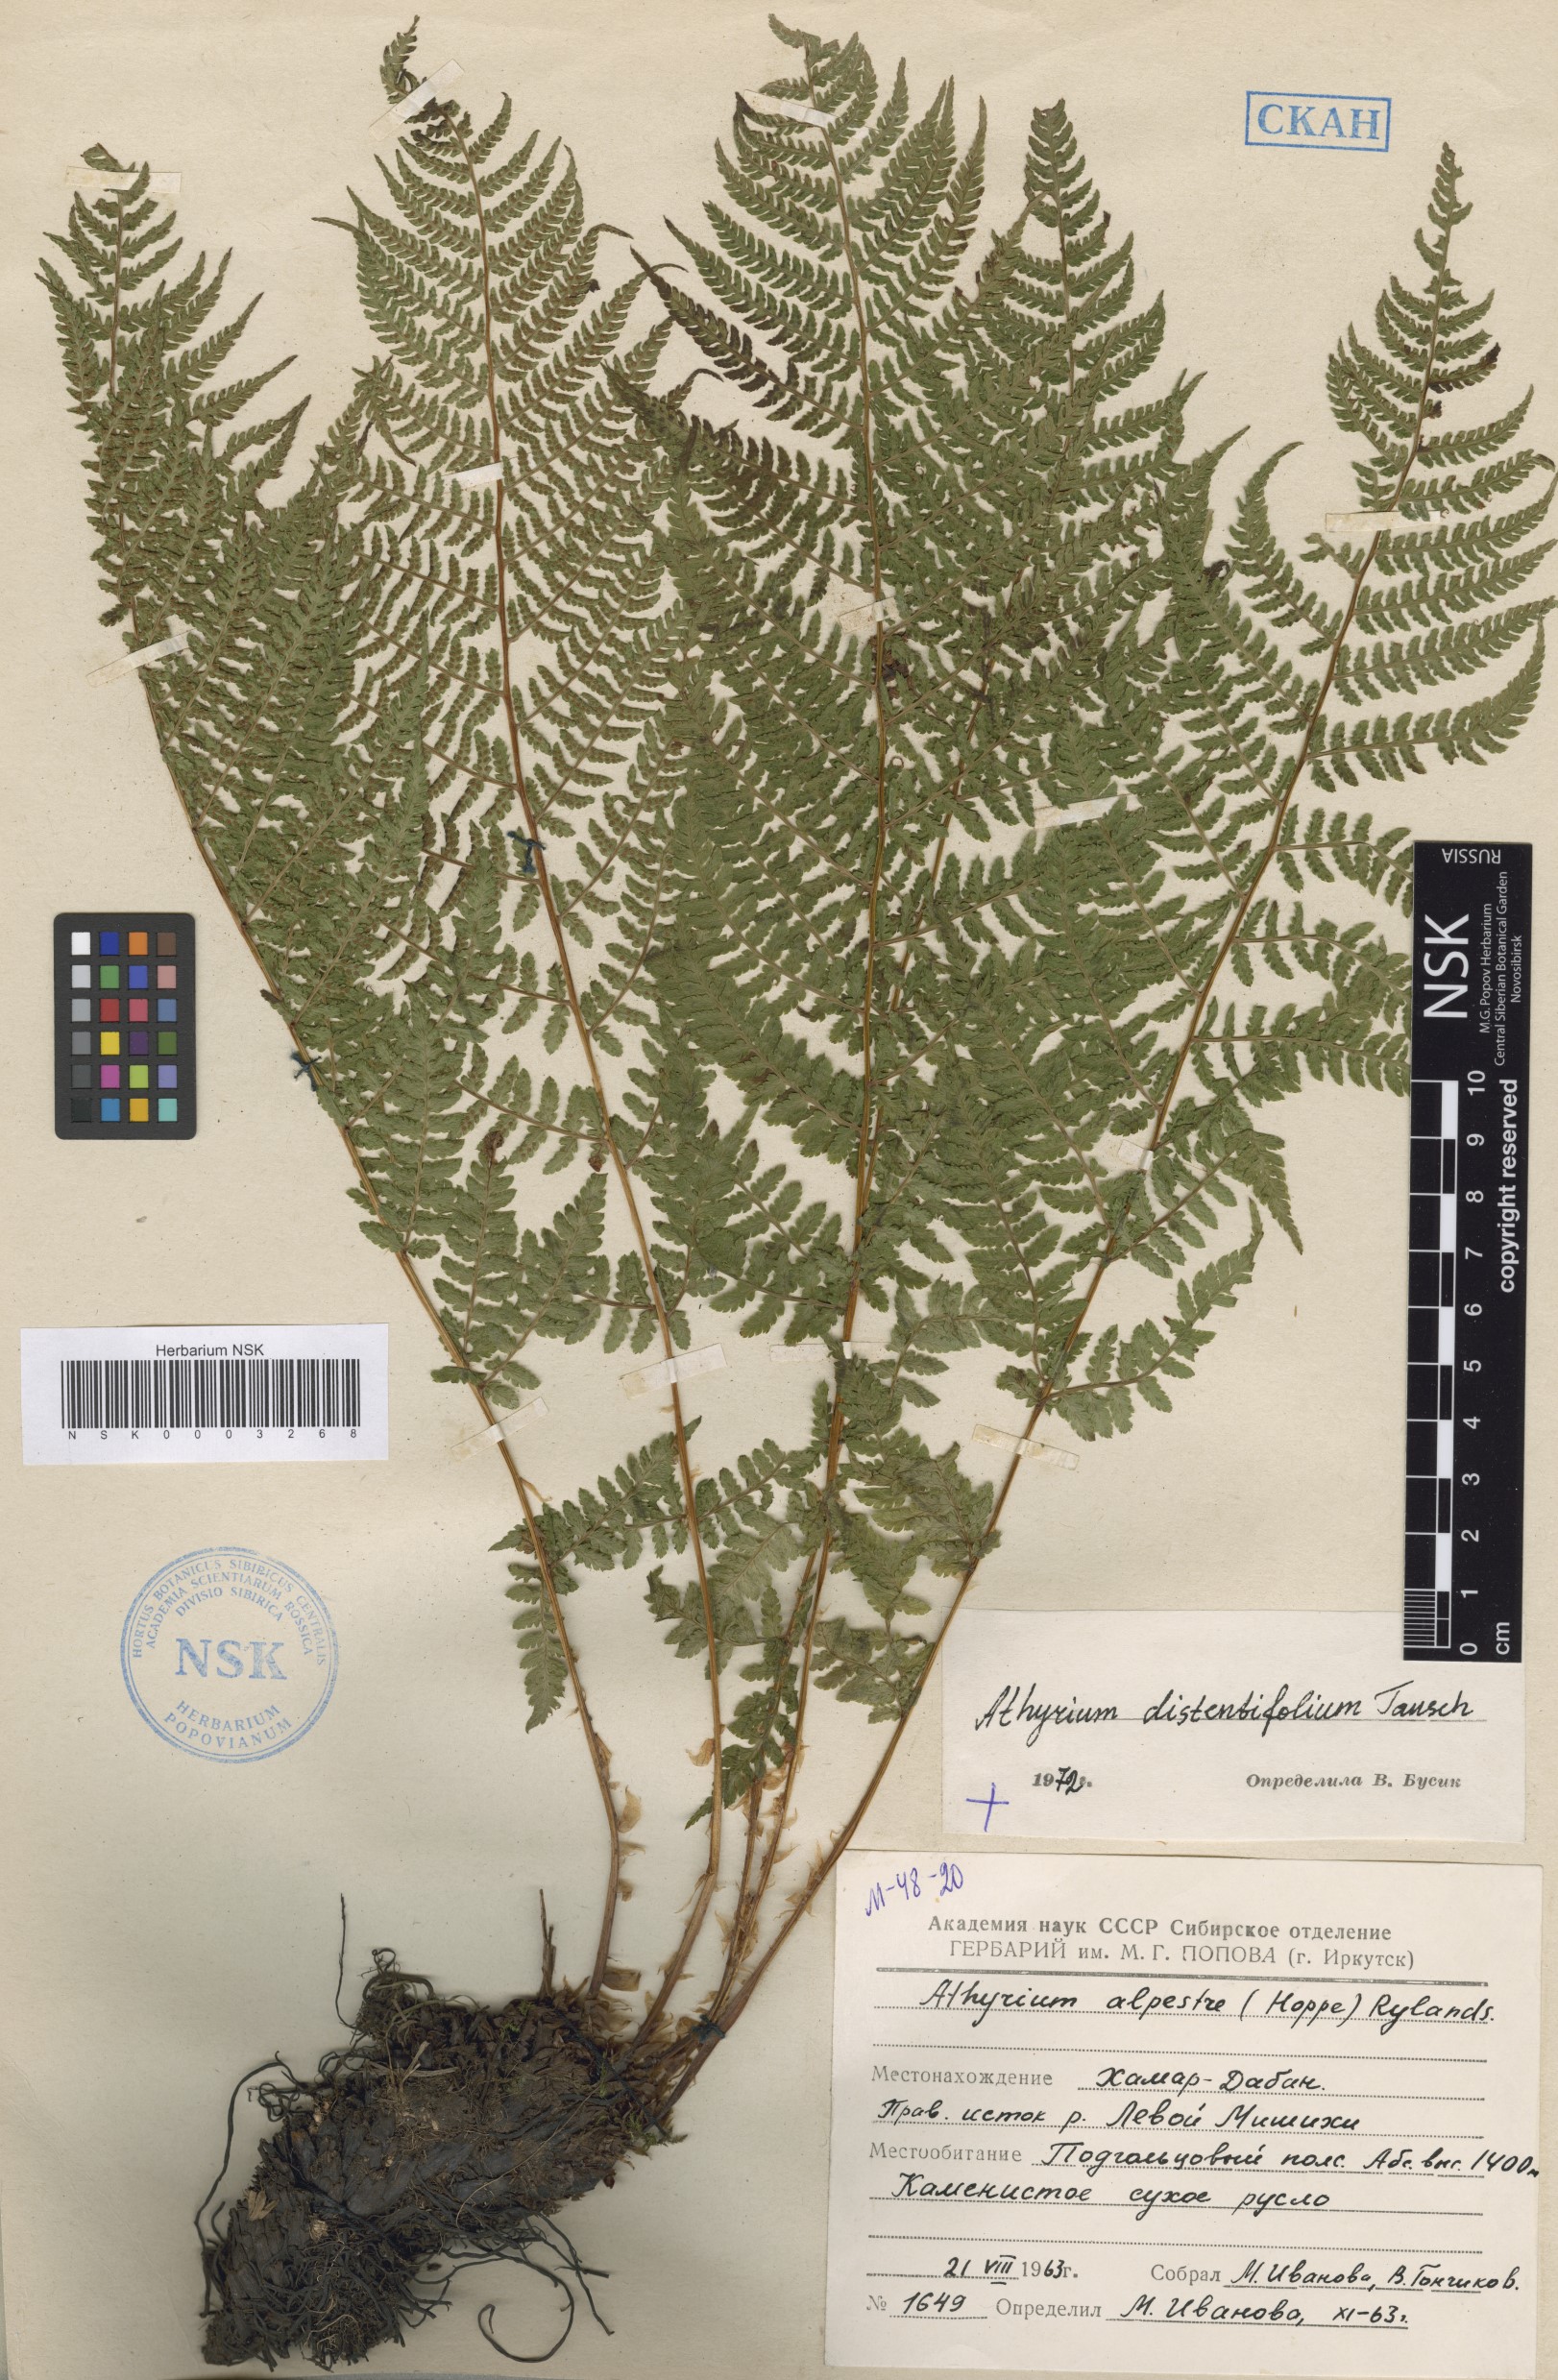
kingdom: Plantae
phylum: Tracheophyta
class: Polypodiopsida
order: Polypodiales
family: Athyriaceae
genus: Pseudathyrium
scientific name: Pseudathyrium alpestre
